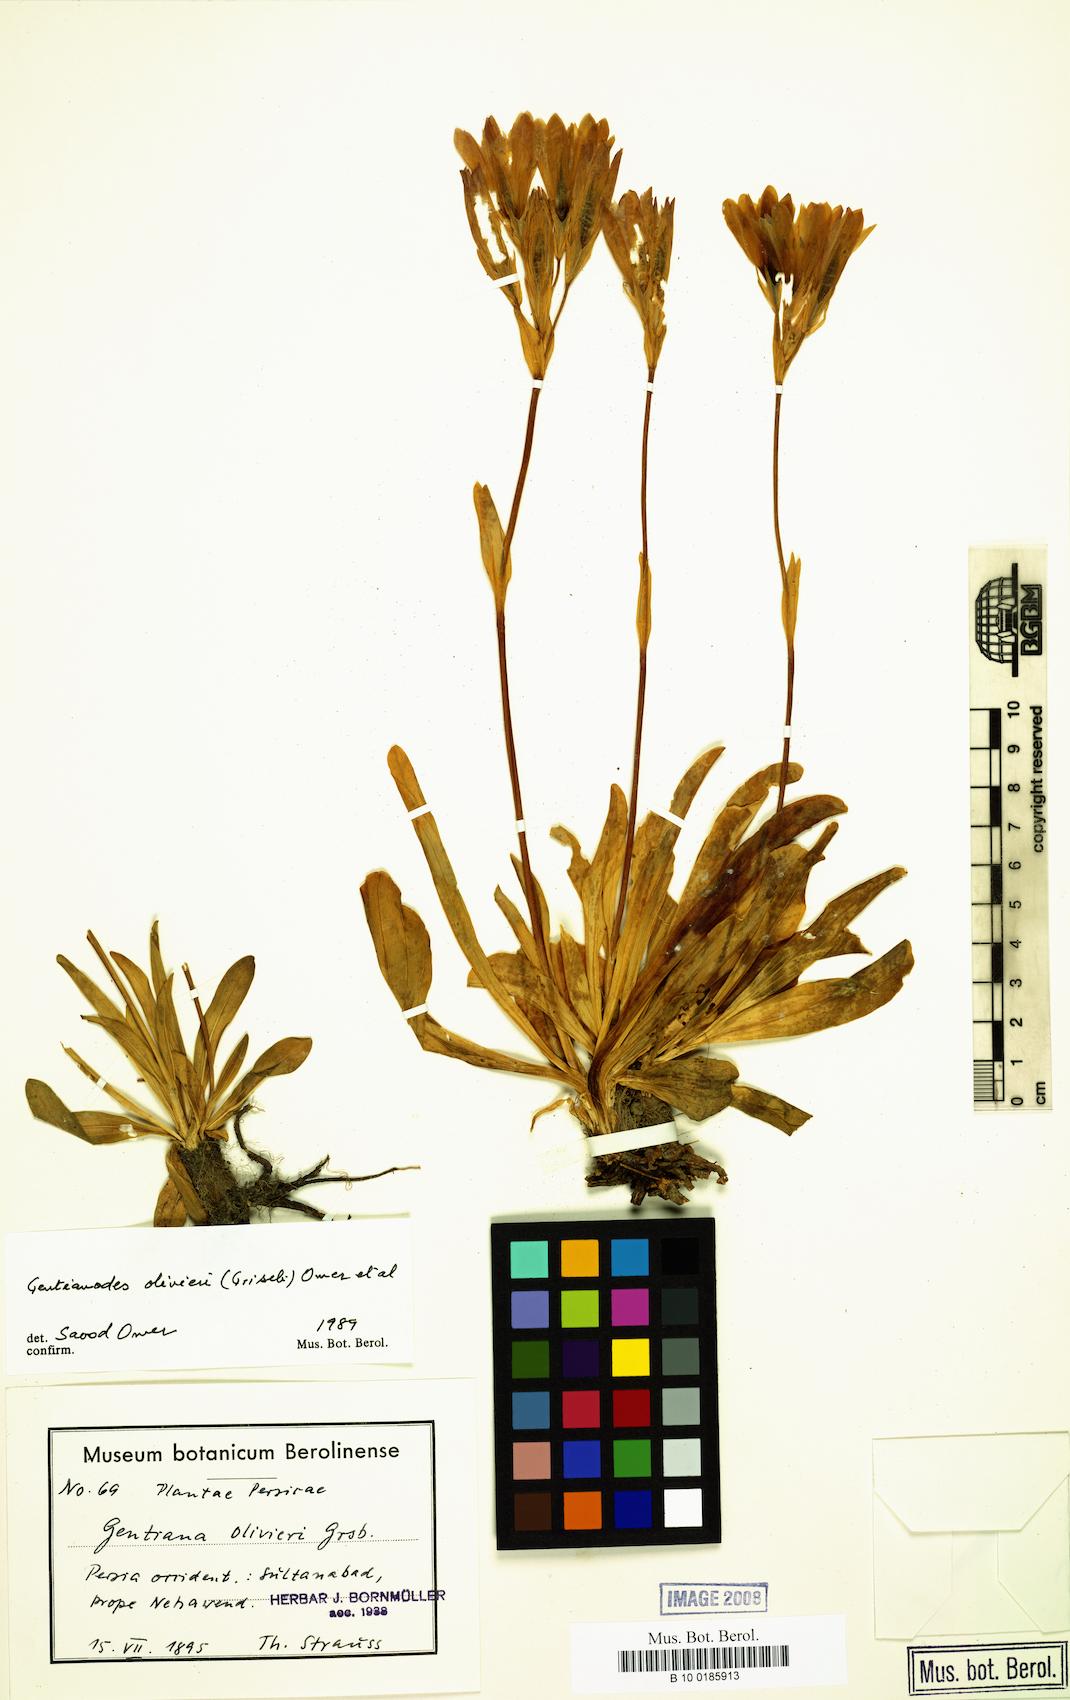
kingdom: Plantae
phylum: Tracheophyta
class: Magnoliopsida
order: Gentianales
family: Gentianaceae
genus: Gentiana
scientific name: Gentiana olivieri
